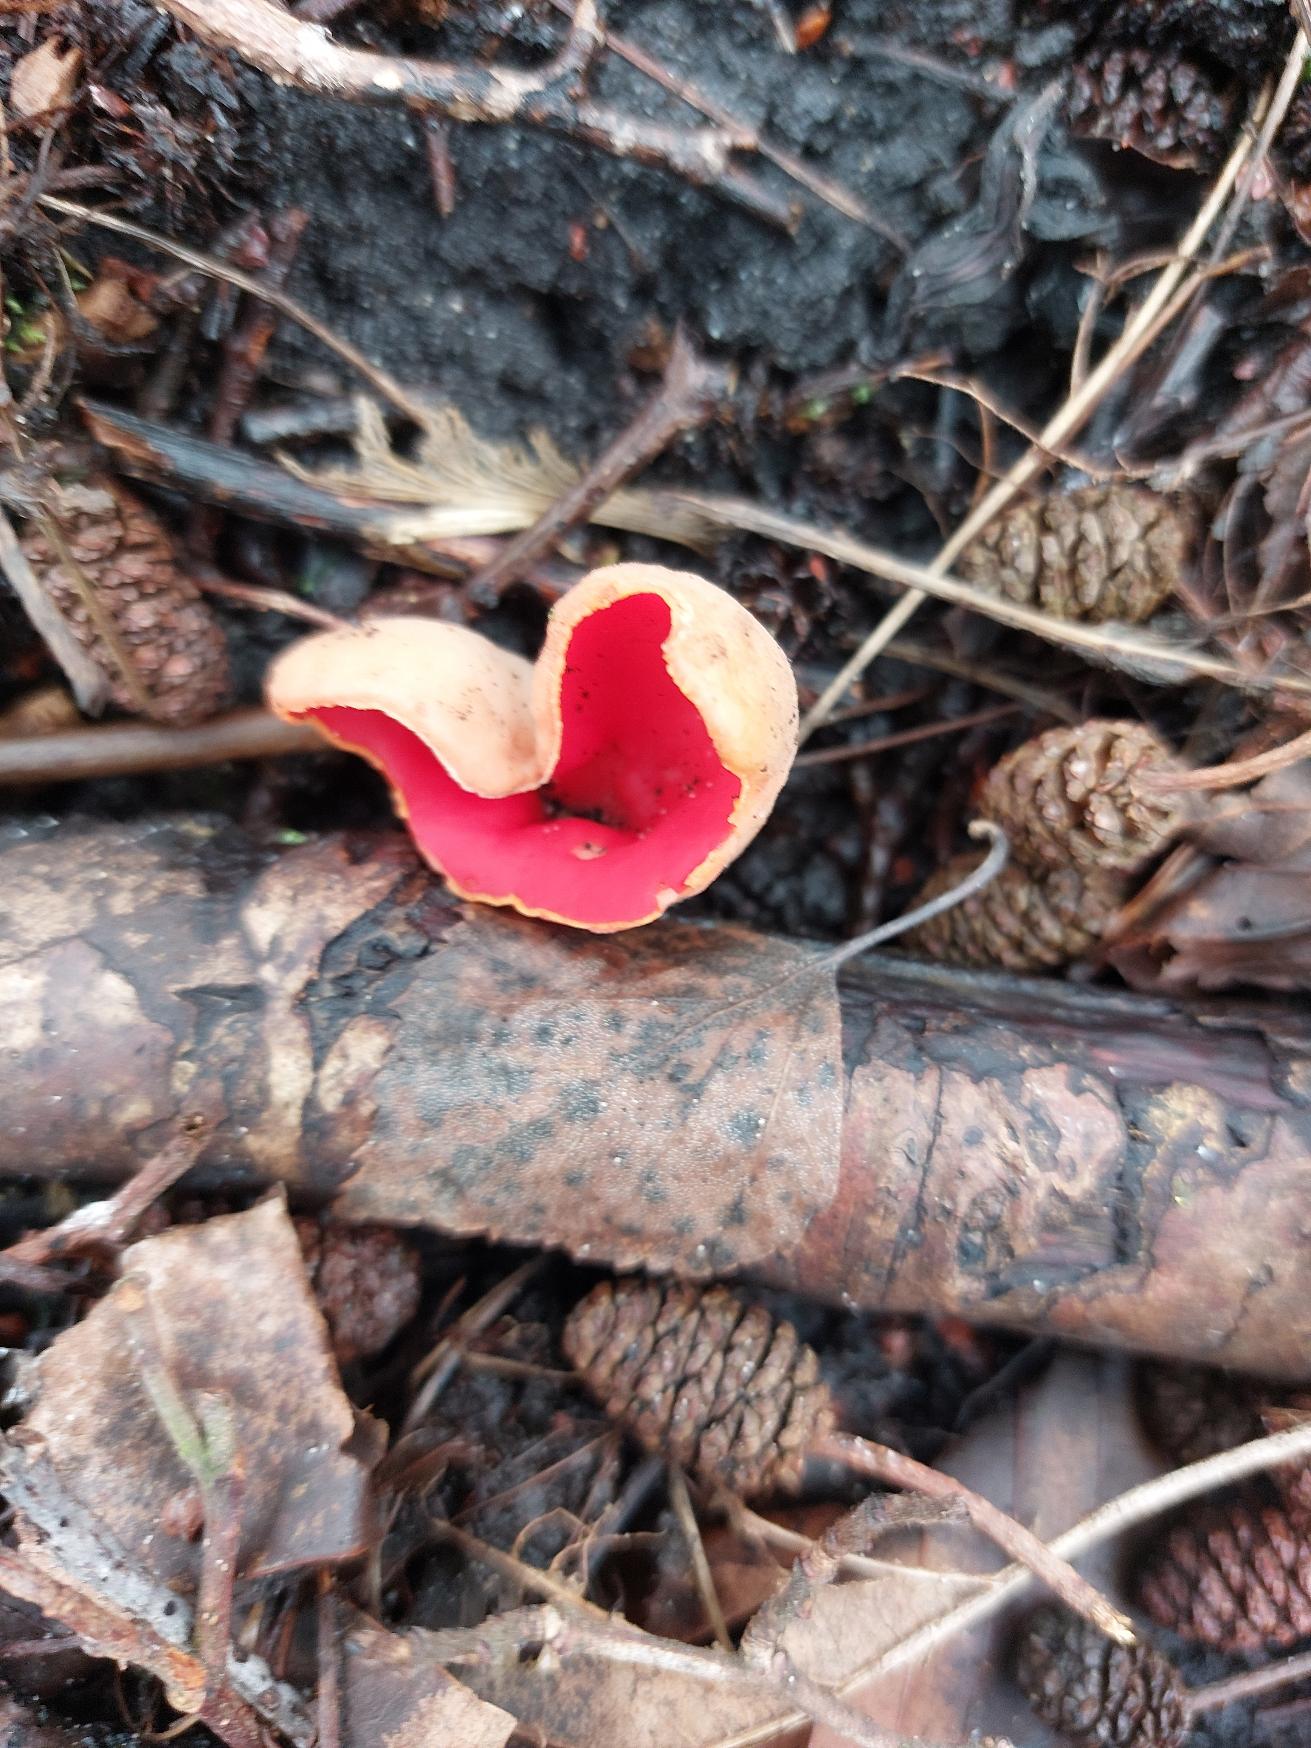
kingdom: Fungi
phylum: Ascomycota
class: Pezizomycetes
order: Pezizales
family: Sarcoscyphaceae
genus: Sarcoscypha
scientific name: Sarcoscypha austriaca
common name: Krølhåret pragtbæger
